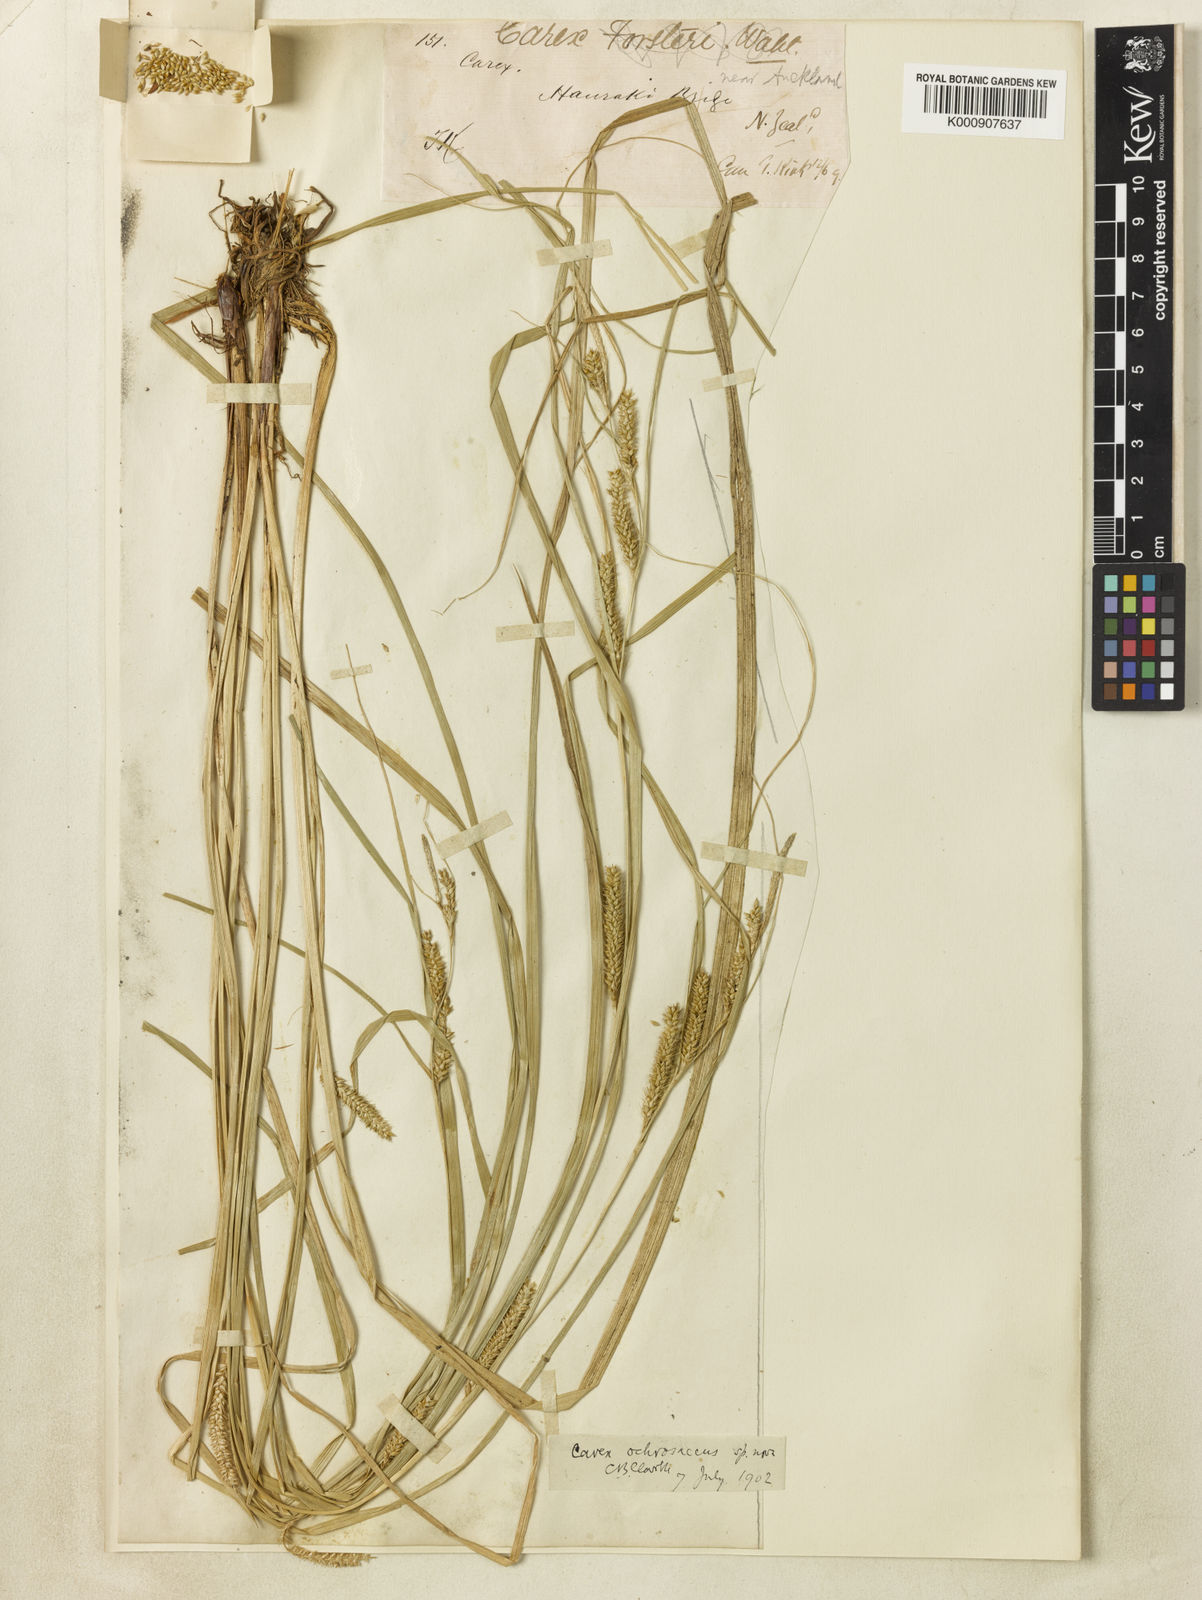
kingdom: Plantae
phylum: Tracheophyta
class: Liliopsida
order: Poales
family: Cyperaceae
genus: Carex
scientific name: Carex ochrosaccus
